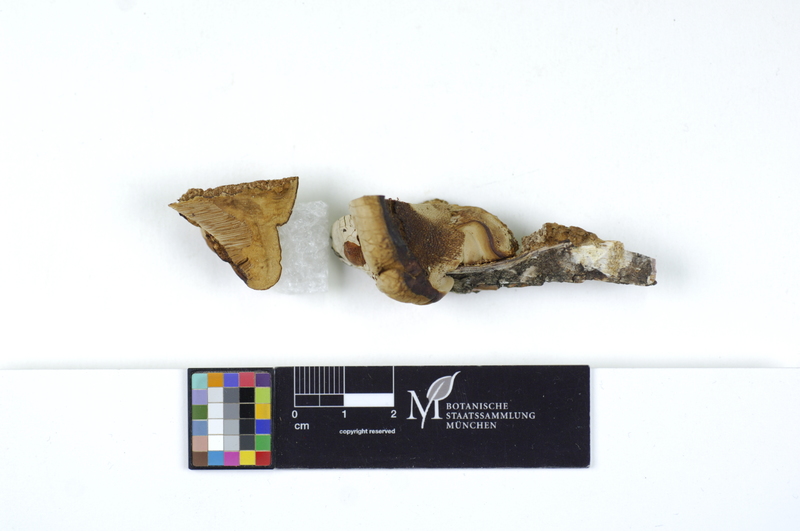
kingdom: Plantae
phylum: Tracheophyta
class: Magnoliopsida
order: Fagales
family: Betulaceae
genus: Betula
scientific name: Betula
